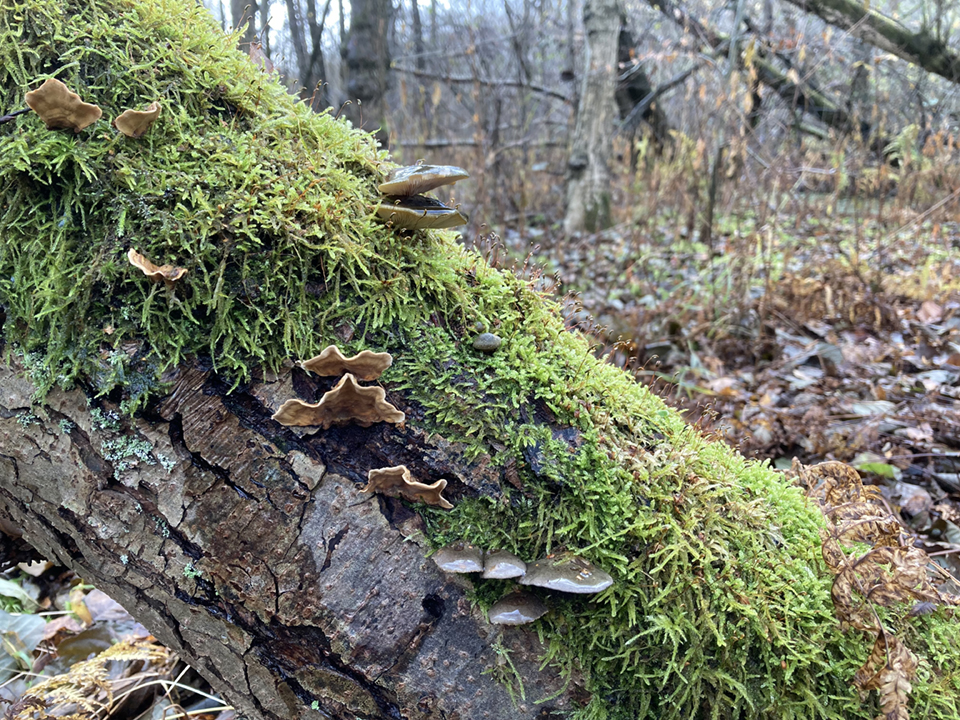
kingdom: Fungi
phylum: Basidiomycota
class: Agaricomycetes
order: Agaricales
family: Sarcomyxaceae
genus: Sarcomyxa
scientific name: Sarcomyxa serotina
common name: gummihat
